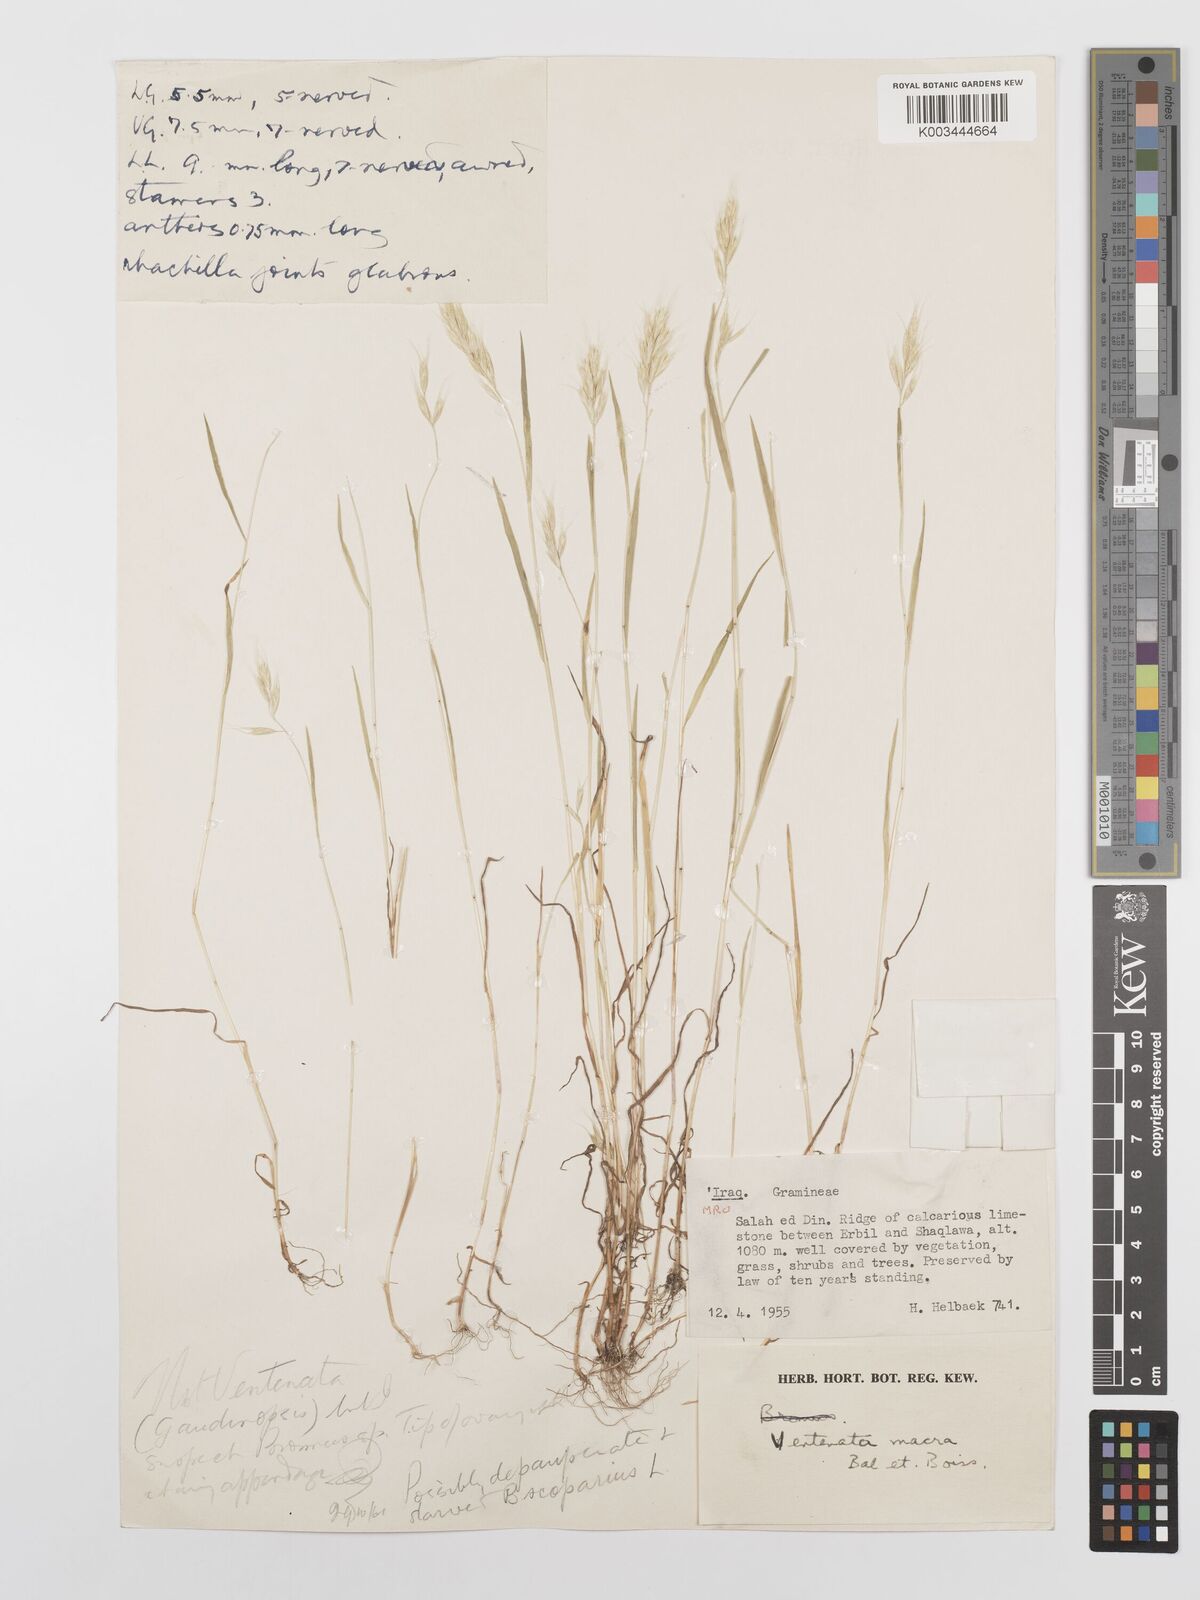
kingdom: Plantae
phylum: Tracheophyta
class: Liliopsida
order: Poales
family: Poaceae
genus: Bromus
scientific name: Bromus scoparius
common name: Broom brome
